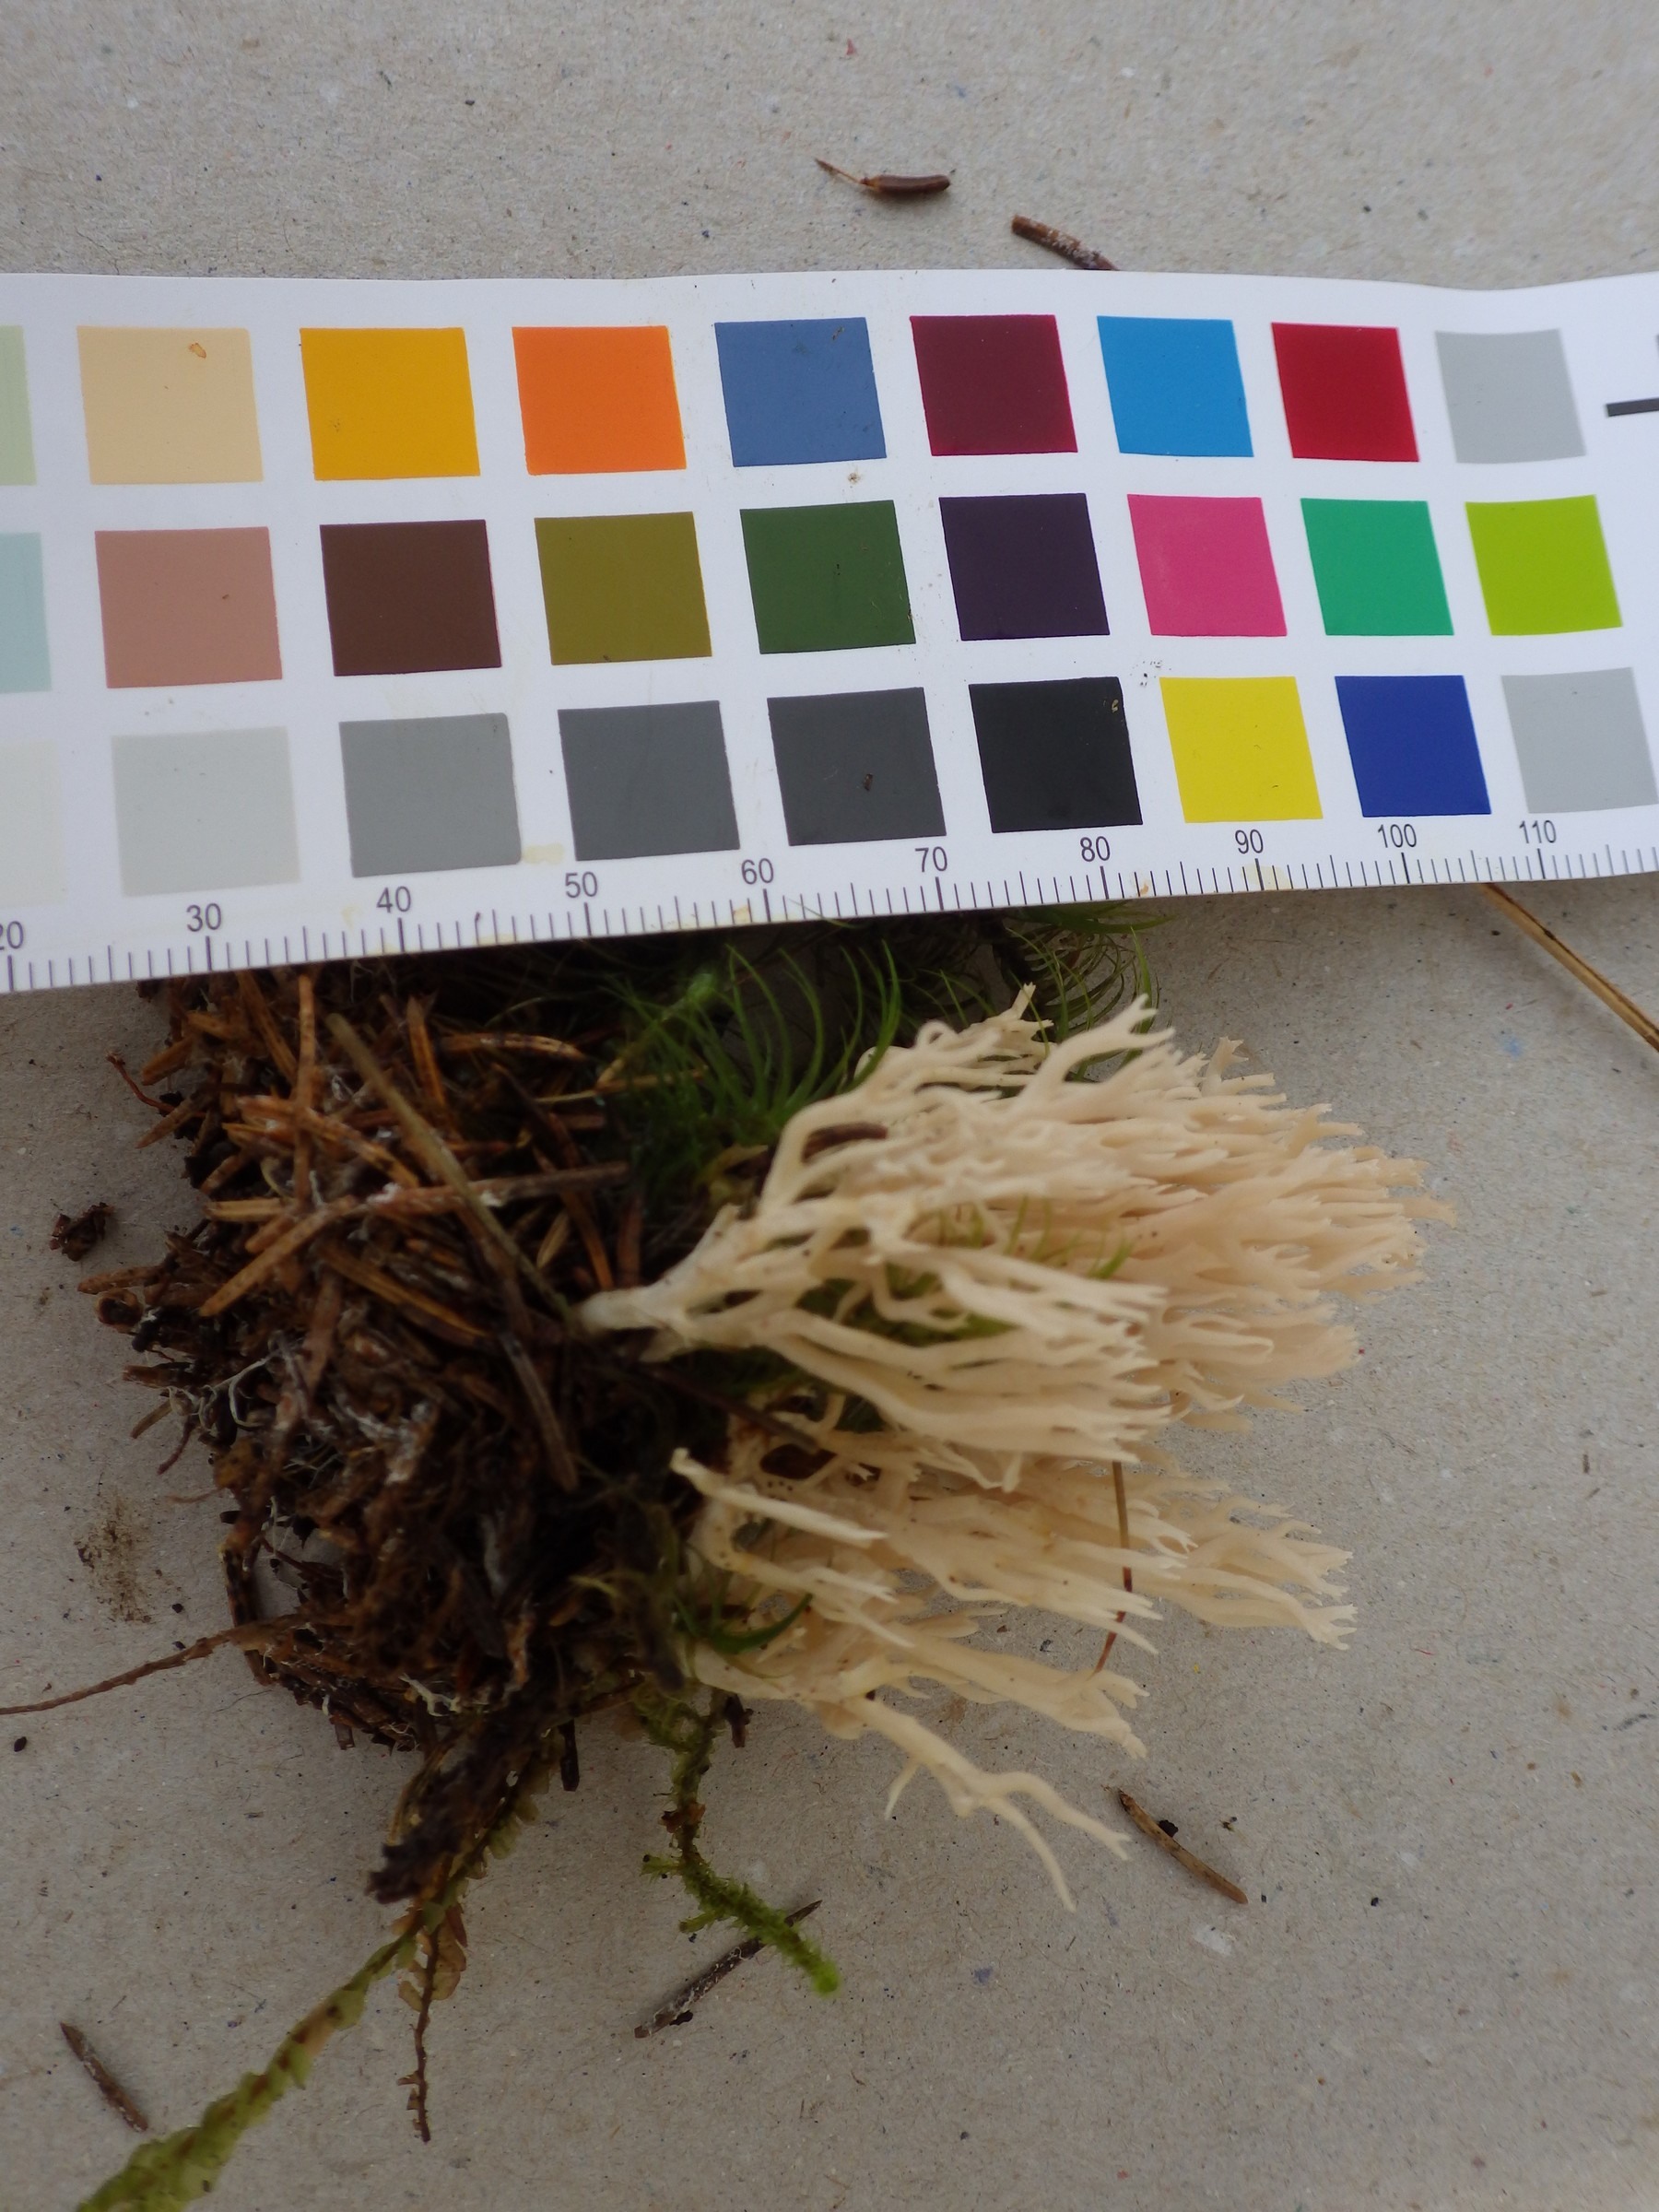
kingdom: Fungi
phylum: Basidiomycota
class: Agaricomycetes
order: Gomphales
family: Gomphaceae
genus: Ramaria
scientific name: Ramaria gracilis
